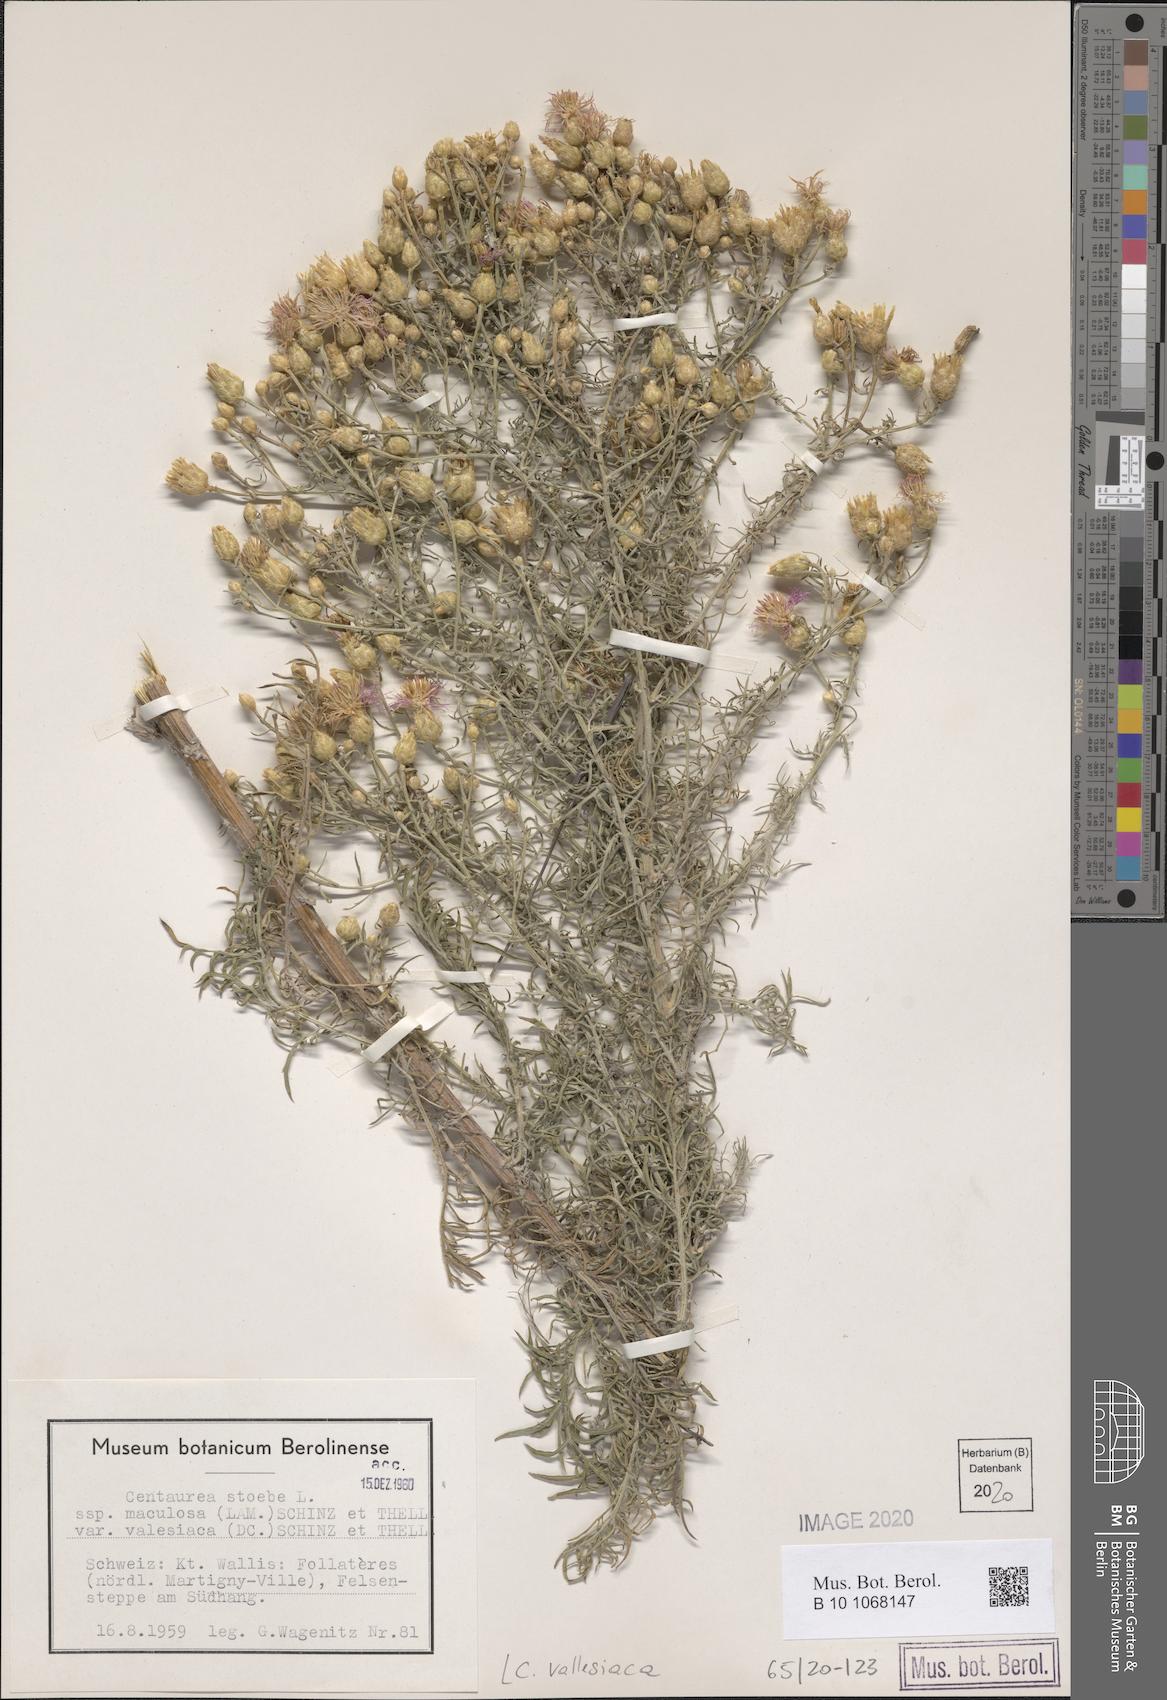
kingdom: Plantae
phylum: Tracheophyta
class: Magnoliopsida
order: Asterales
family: Asteraceae
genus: Centaurea
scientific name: Centaurea valesiaca
